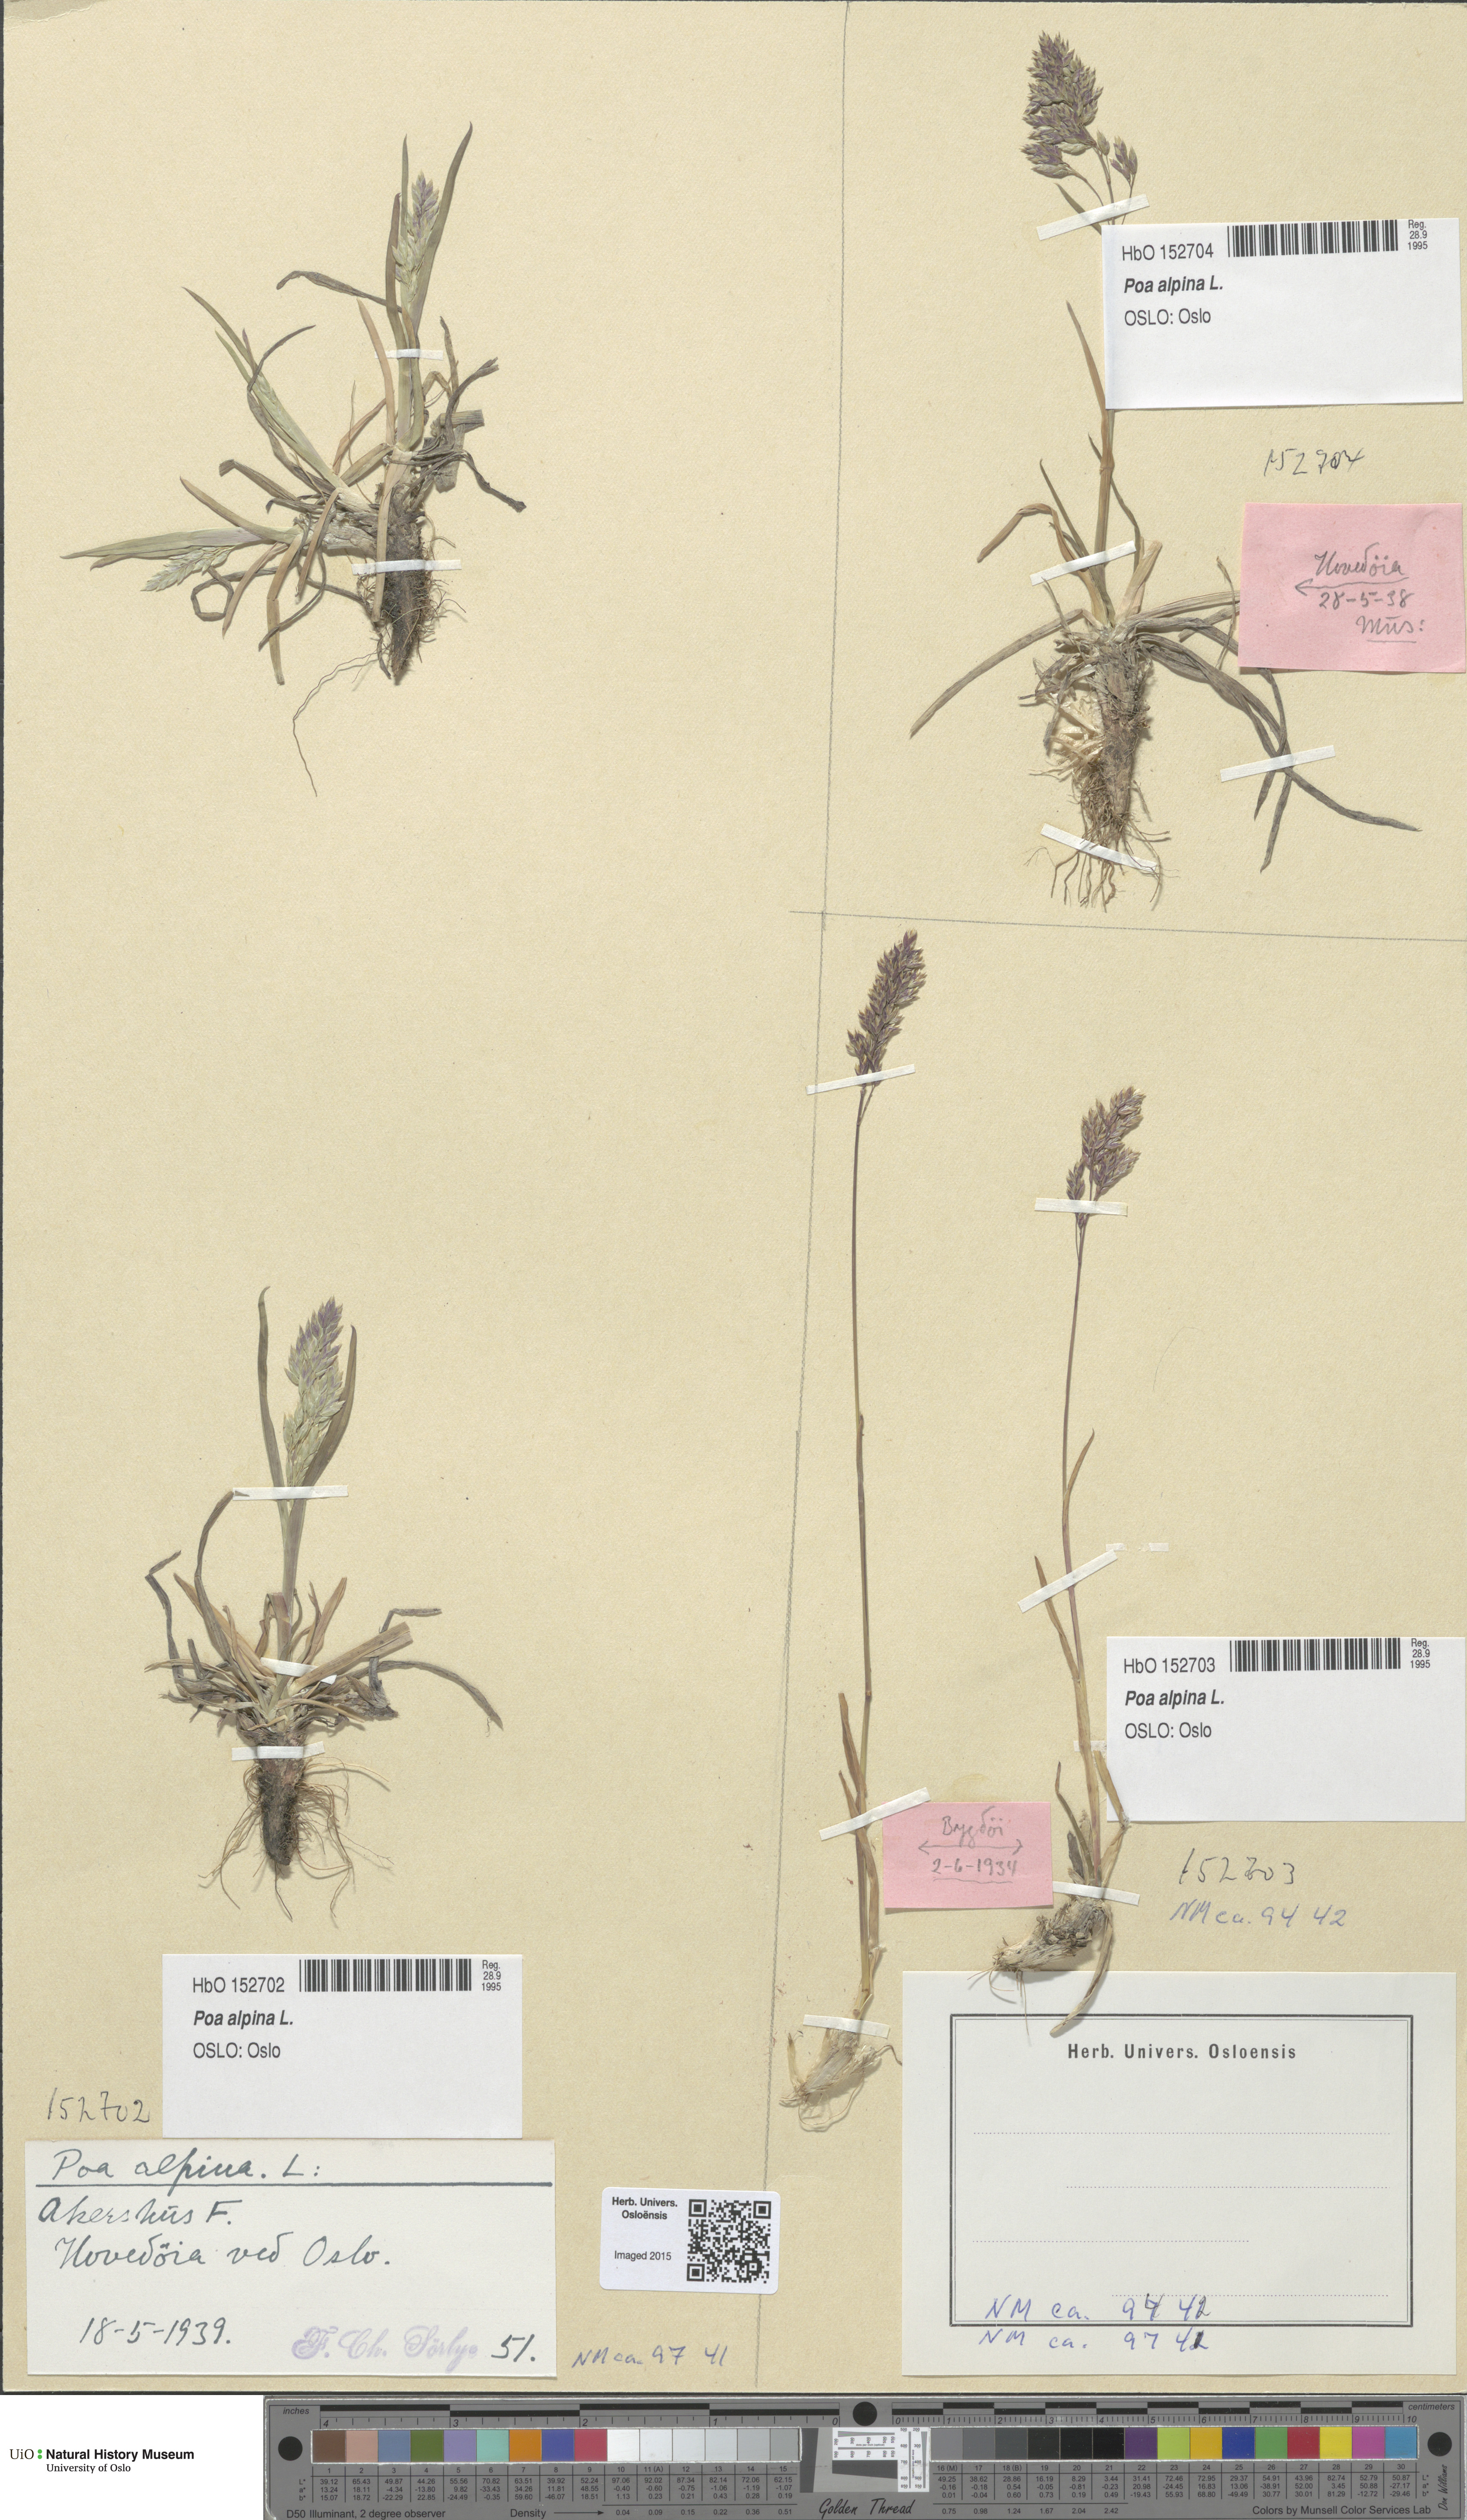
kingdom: Plantae
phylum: Tracheophyta
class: Liliopsida
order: Poales
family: Poaceae
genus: Poa
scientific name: Poa alpina
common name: Alpine bluegrass
